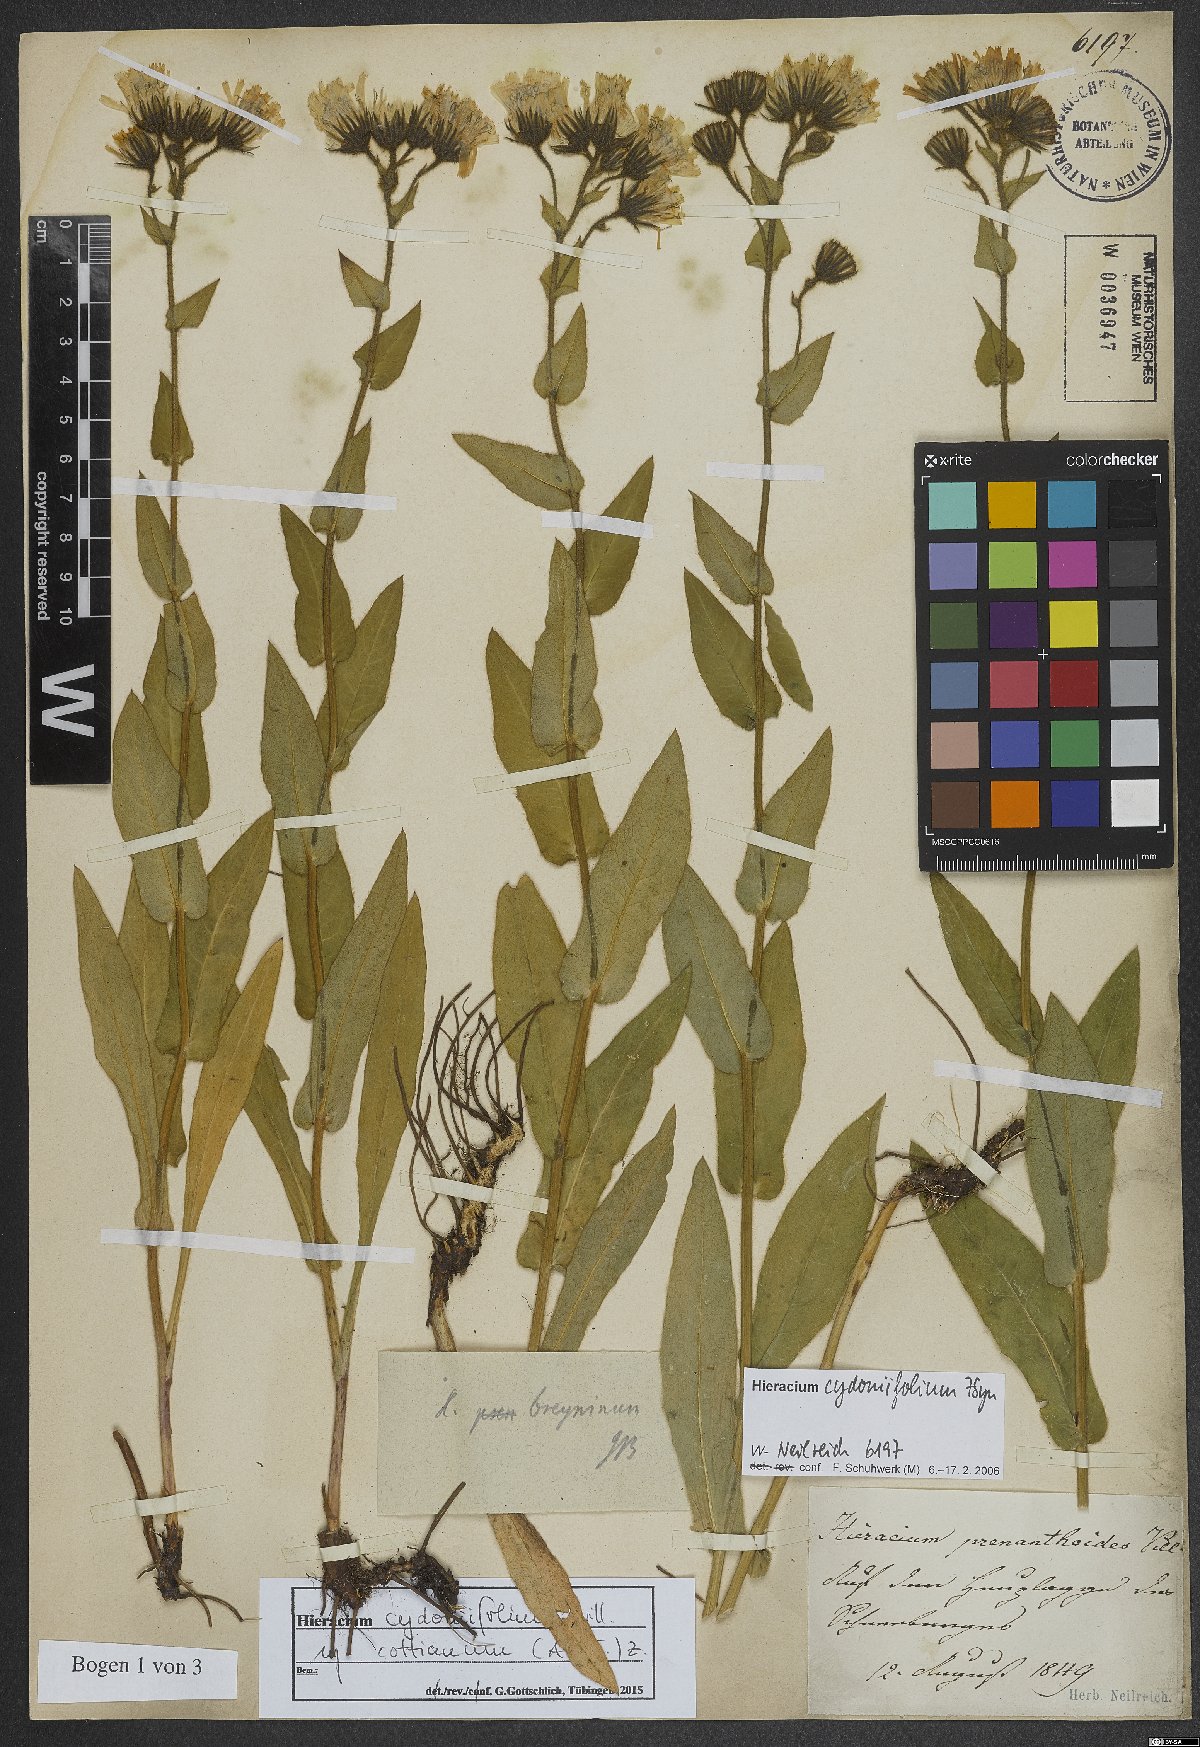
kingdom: Plantae
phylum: Tracheophyta
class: Magnoliopsida
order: Asterales
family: Asteraceae
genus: Hieracium
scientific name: Hieracium cydoniifolium
